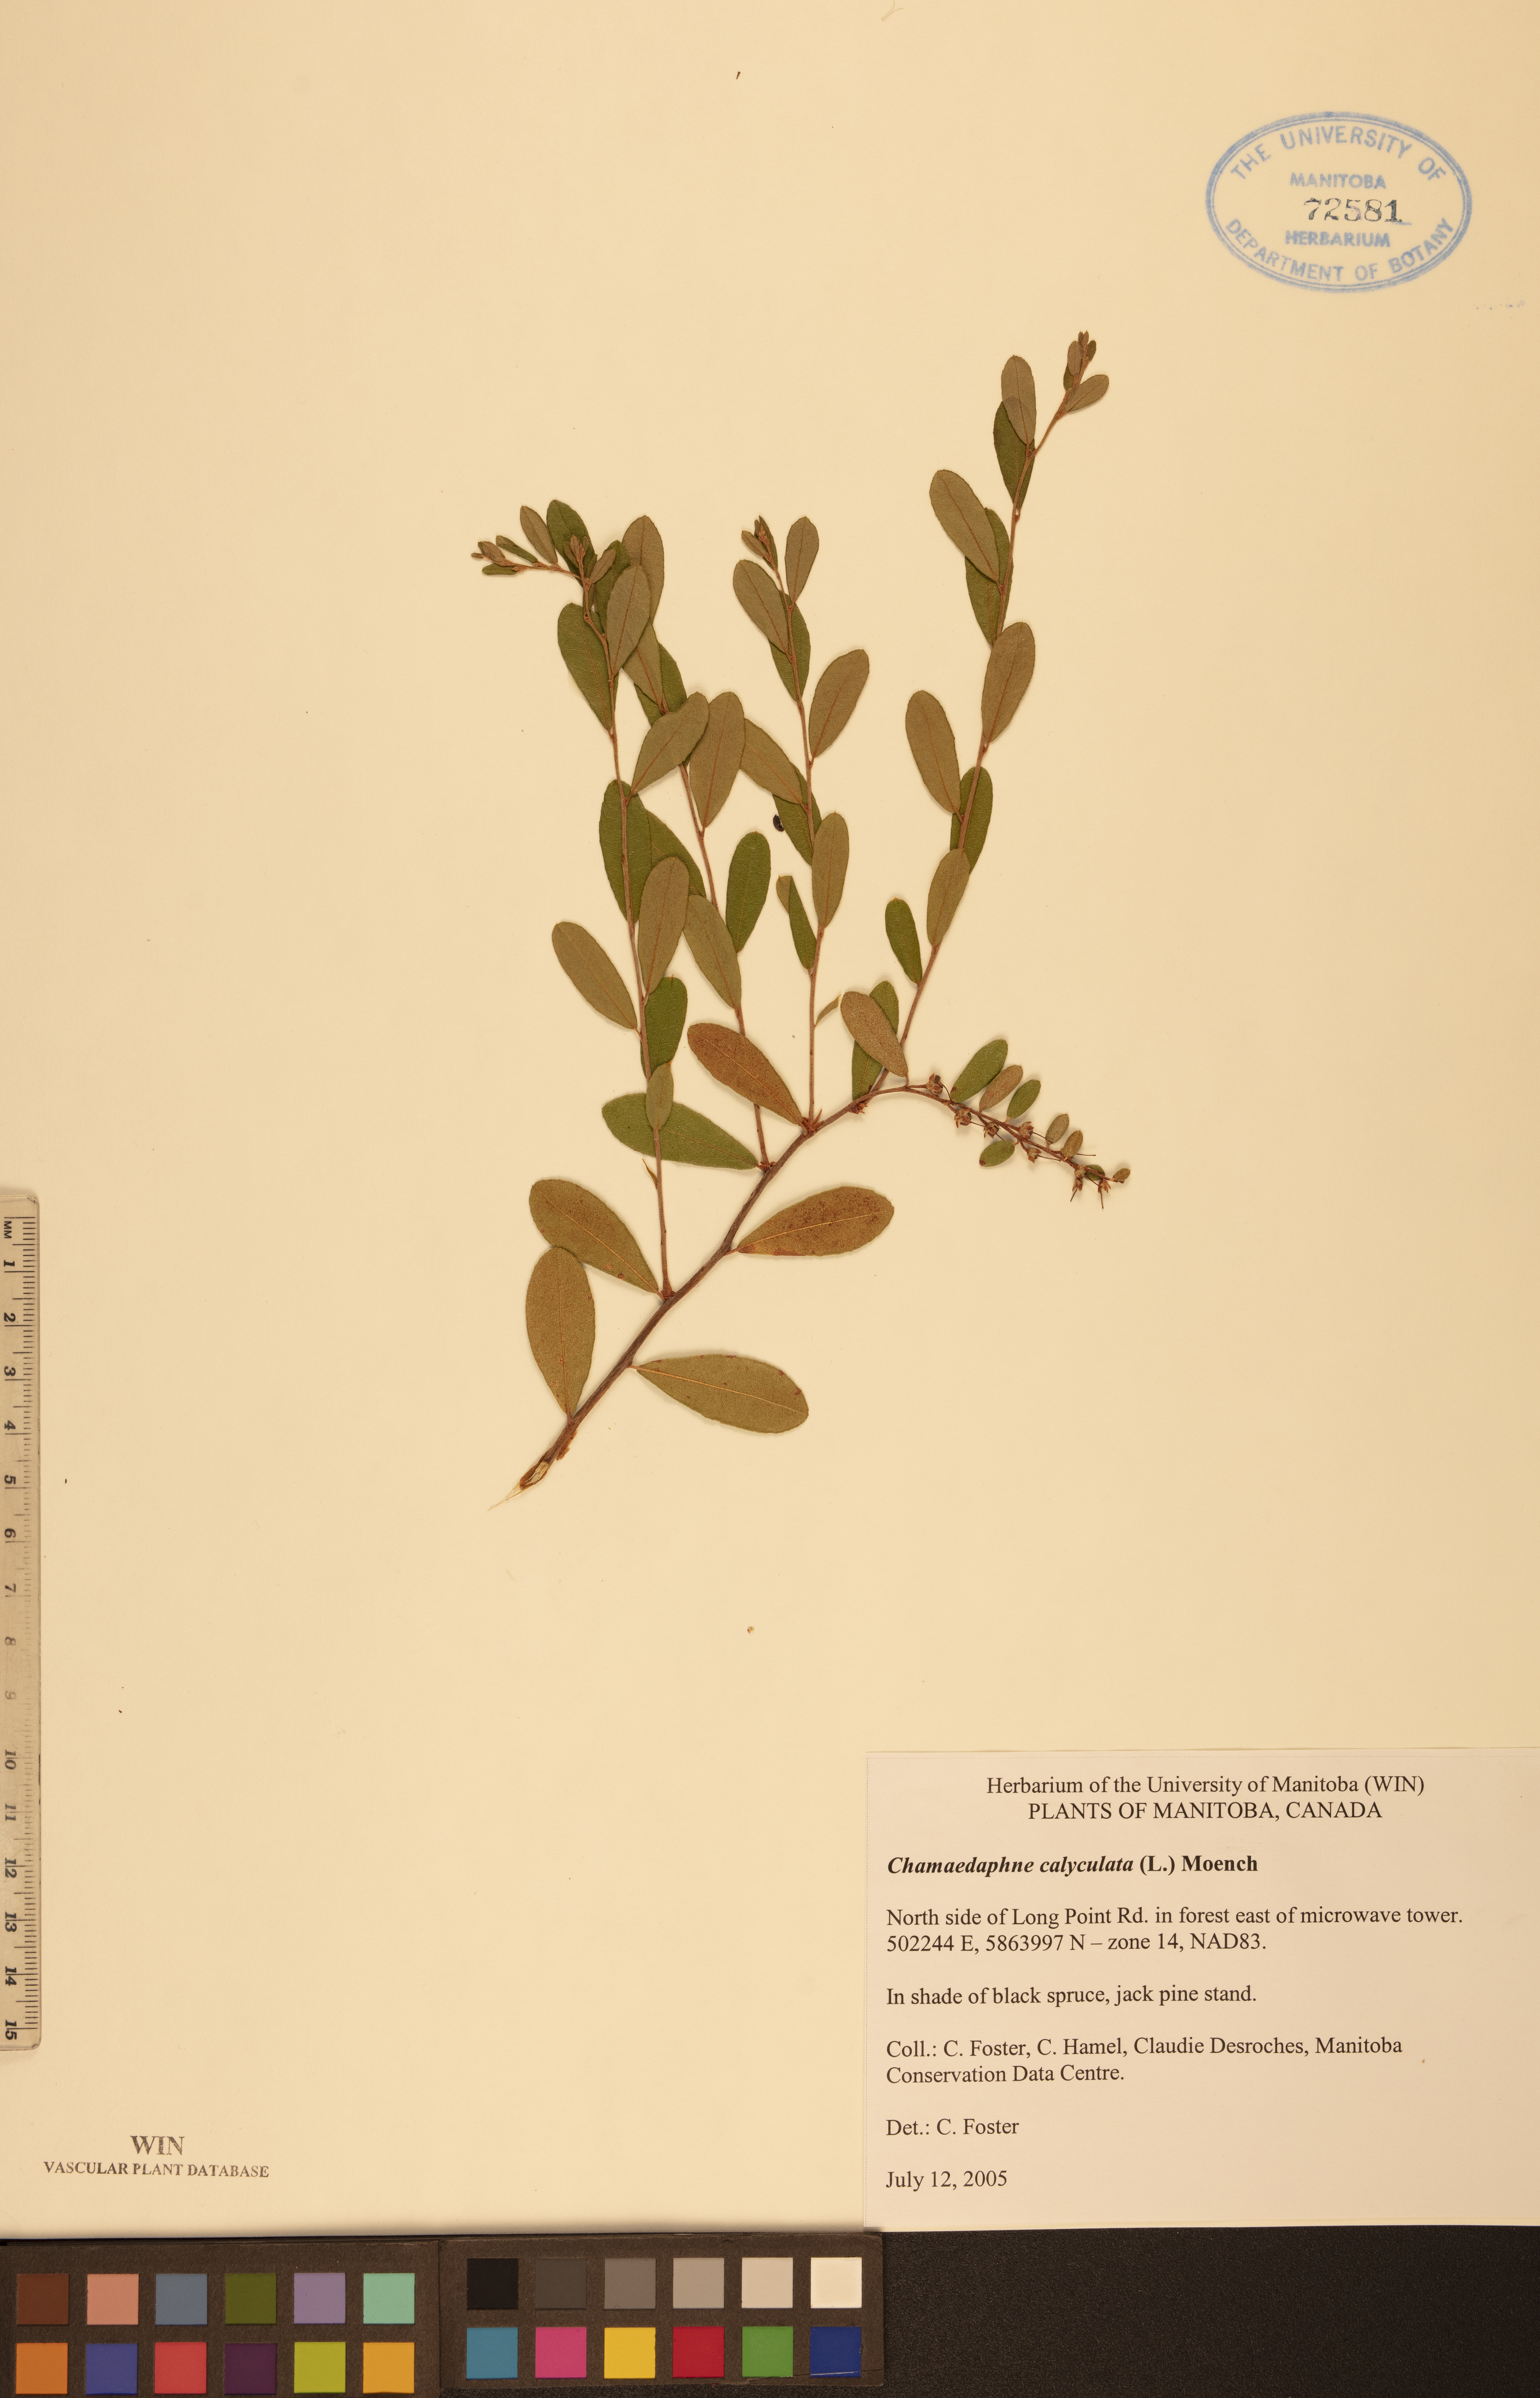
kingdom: Plantae
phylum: Tracheophyta
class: Magnoliopsida
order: Ericales
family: Ericaceae
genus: Chamaedaphne
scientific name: Chamaedaphne calyculata
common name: Leatherleaf
